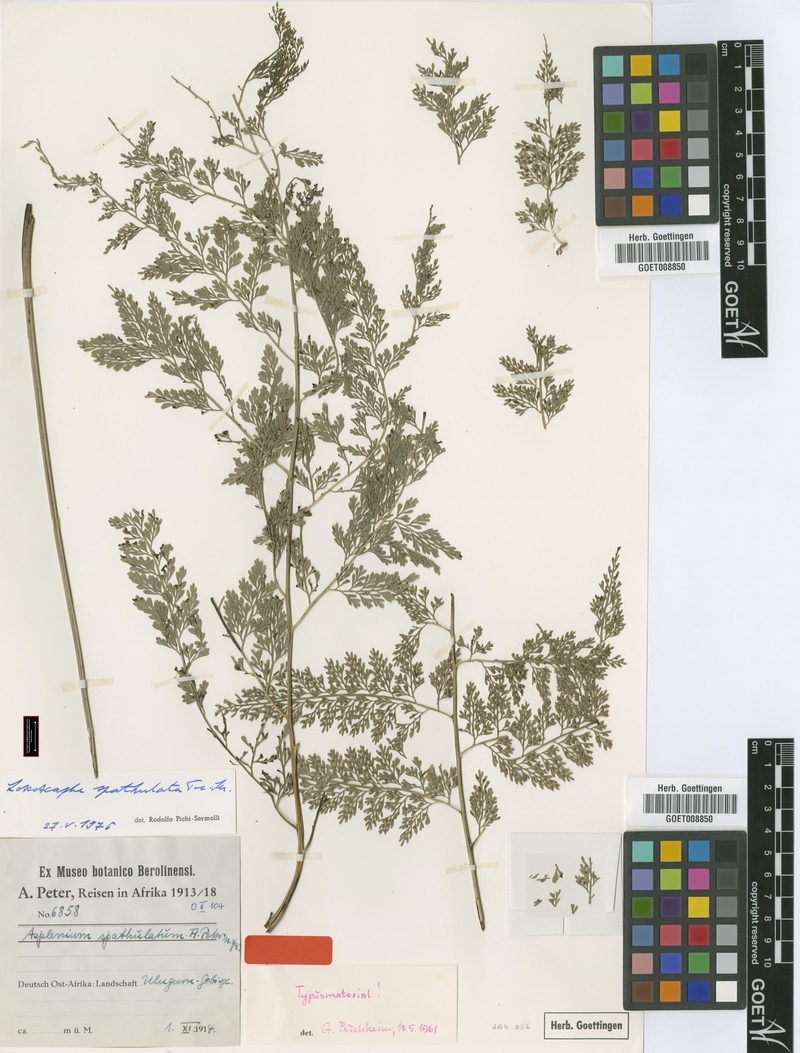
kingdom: Plantae
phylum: Tracheophyta
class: Polypodiopsida
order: Polypodiales
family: Aspleniaceae
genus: Asplenium
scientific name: Asplenium hypomelas
